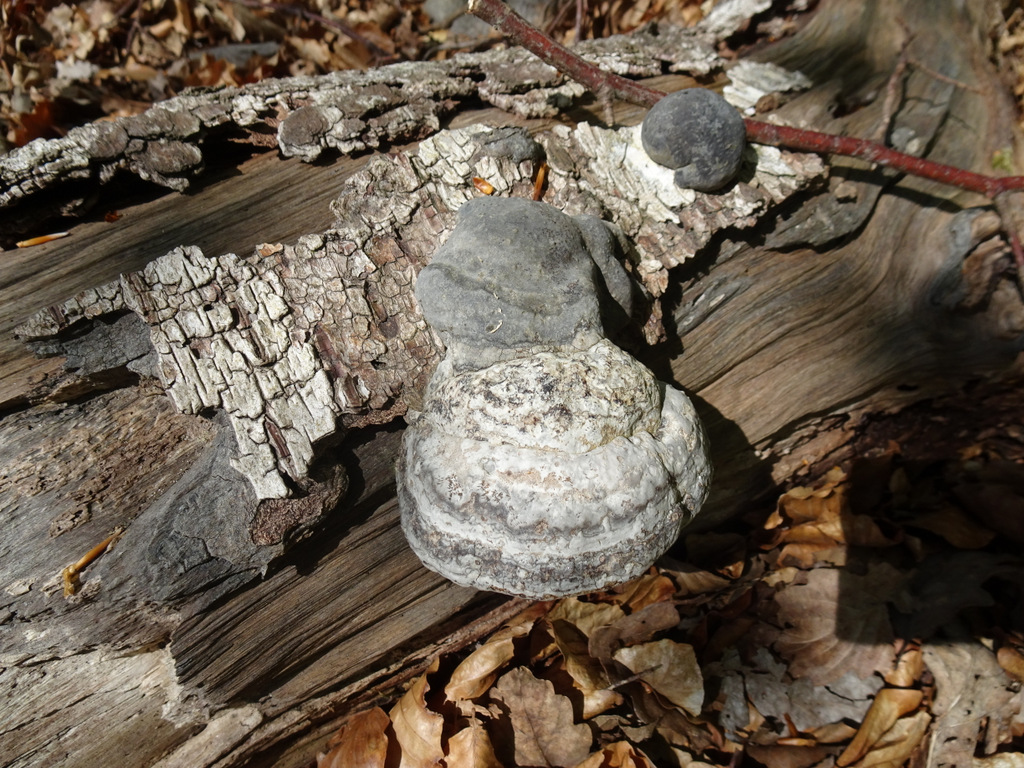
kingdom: Fungi
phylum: Basidiomycota
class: Agaricomycetes
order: Polyporales
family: Polyporaceae
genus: Fomes
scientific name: Fomes fomentarius
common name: tøndersvamp
